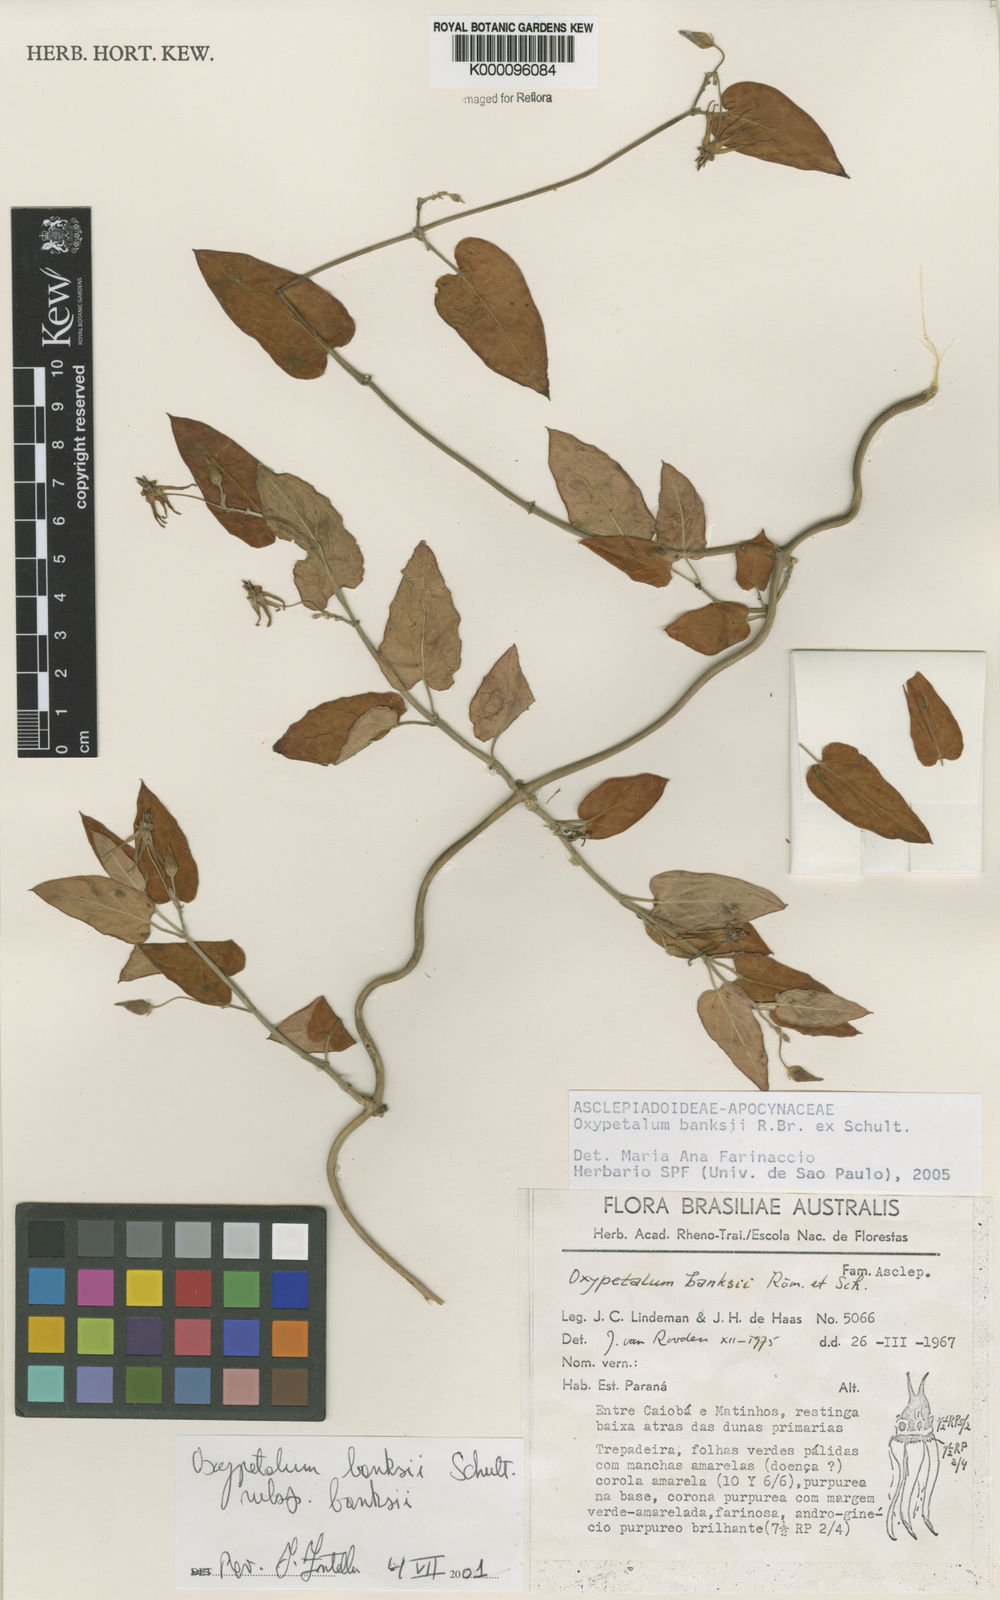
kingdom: Plantae
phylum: Tracheophyta
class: Magnoliopsida
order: Gentianales
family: Apocynaceae
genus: Oxypetalum
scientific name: Oxypetalum banksii
